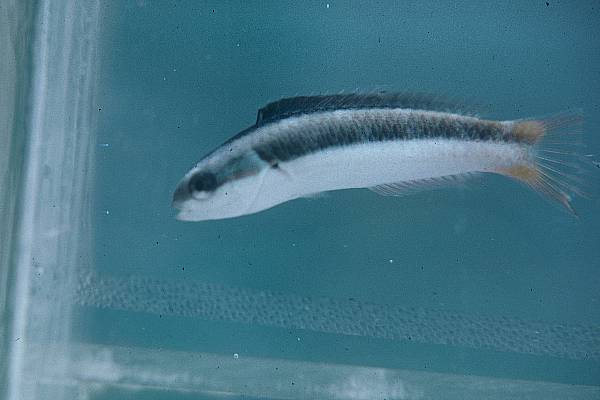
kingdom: Animalia
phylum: Chordata
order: Perciformes
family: Labridae
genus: Thalassoma
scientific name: Thalassoma amblycephalum
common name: Bluehead wrasse
